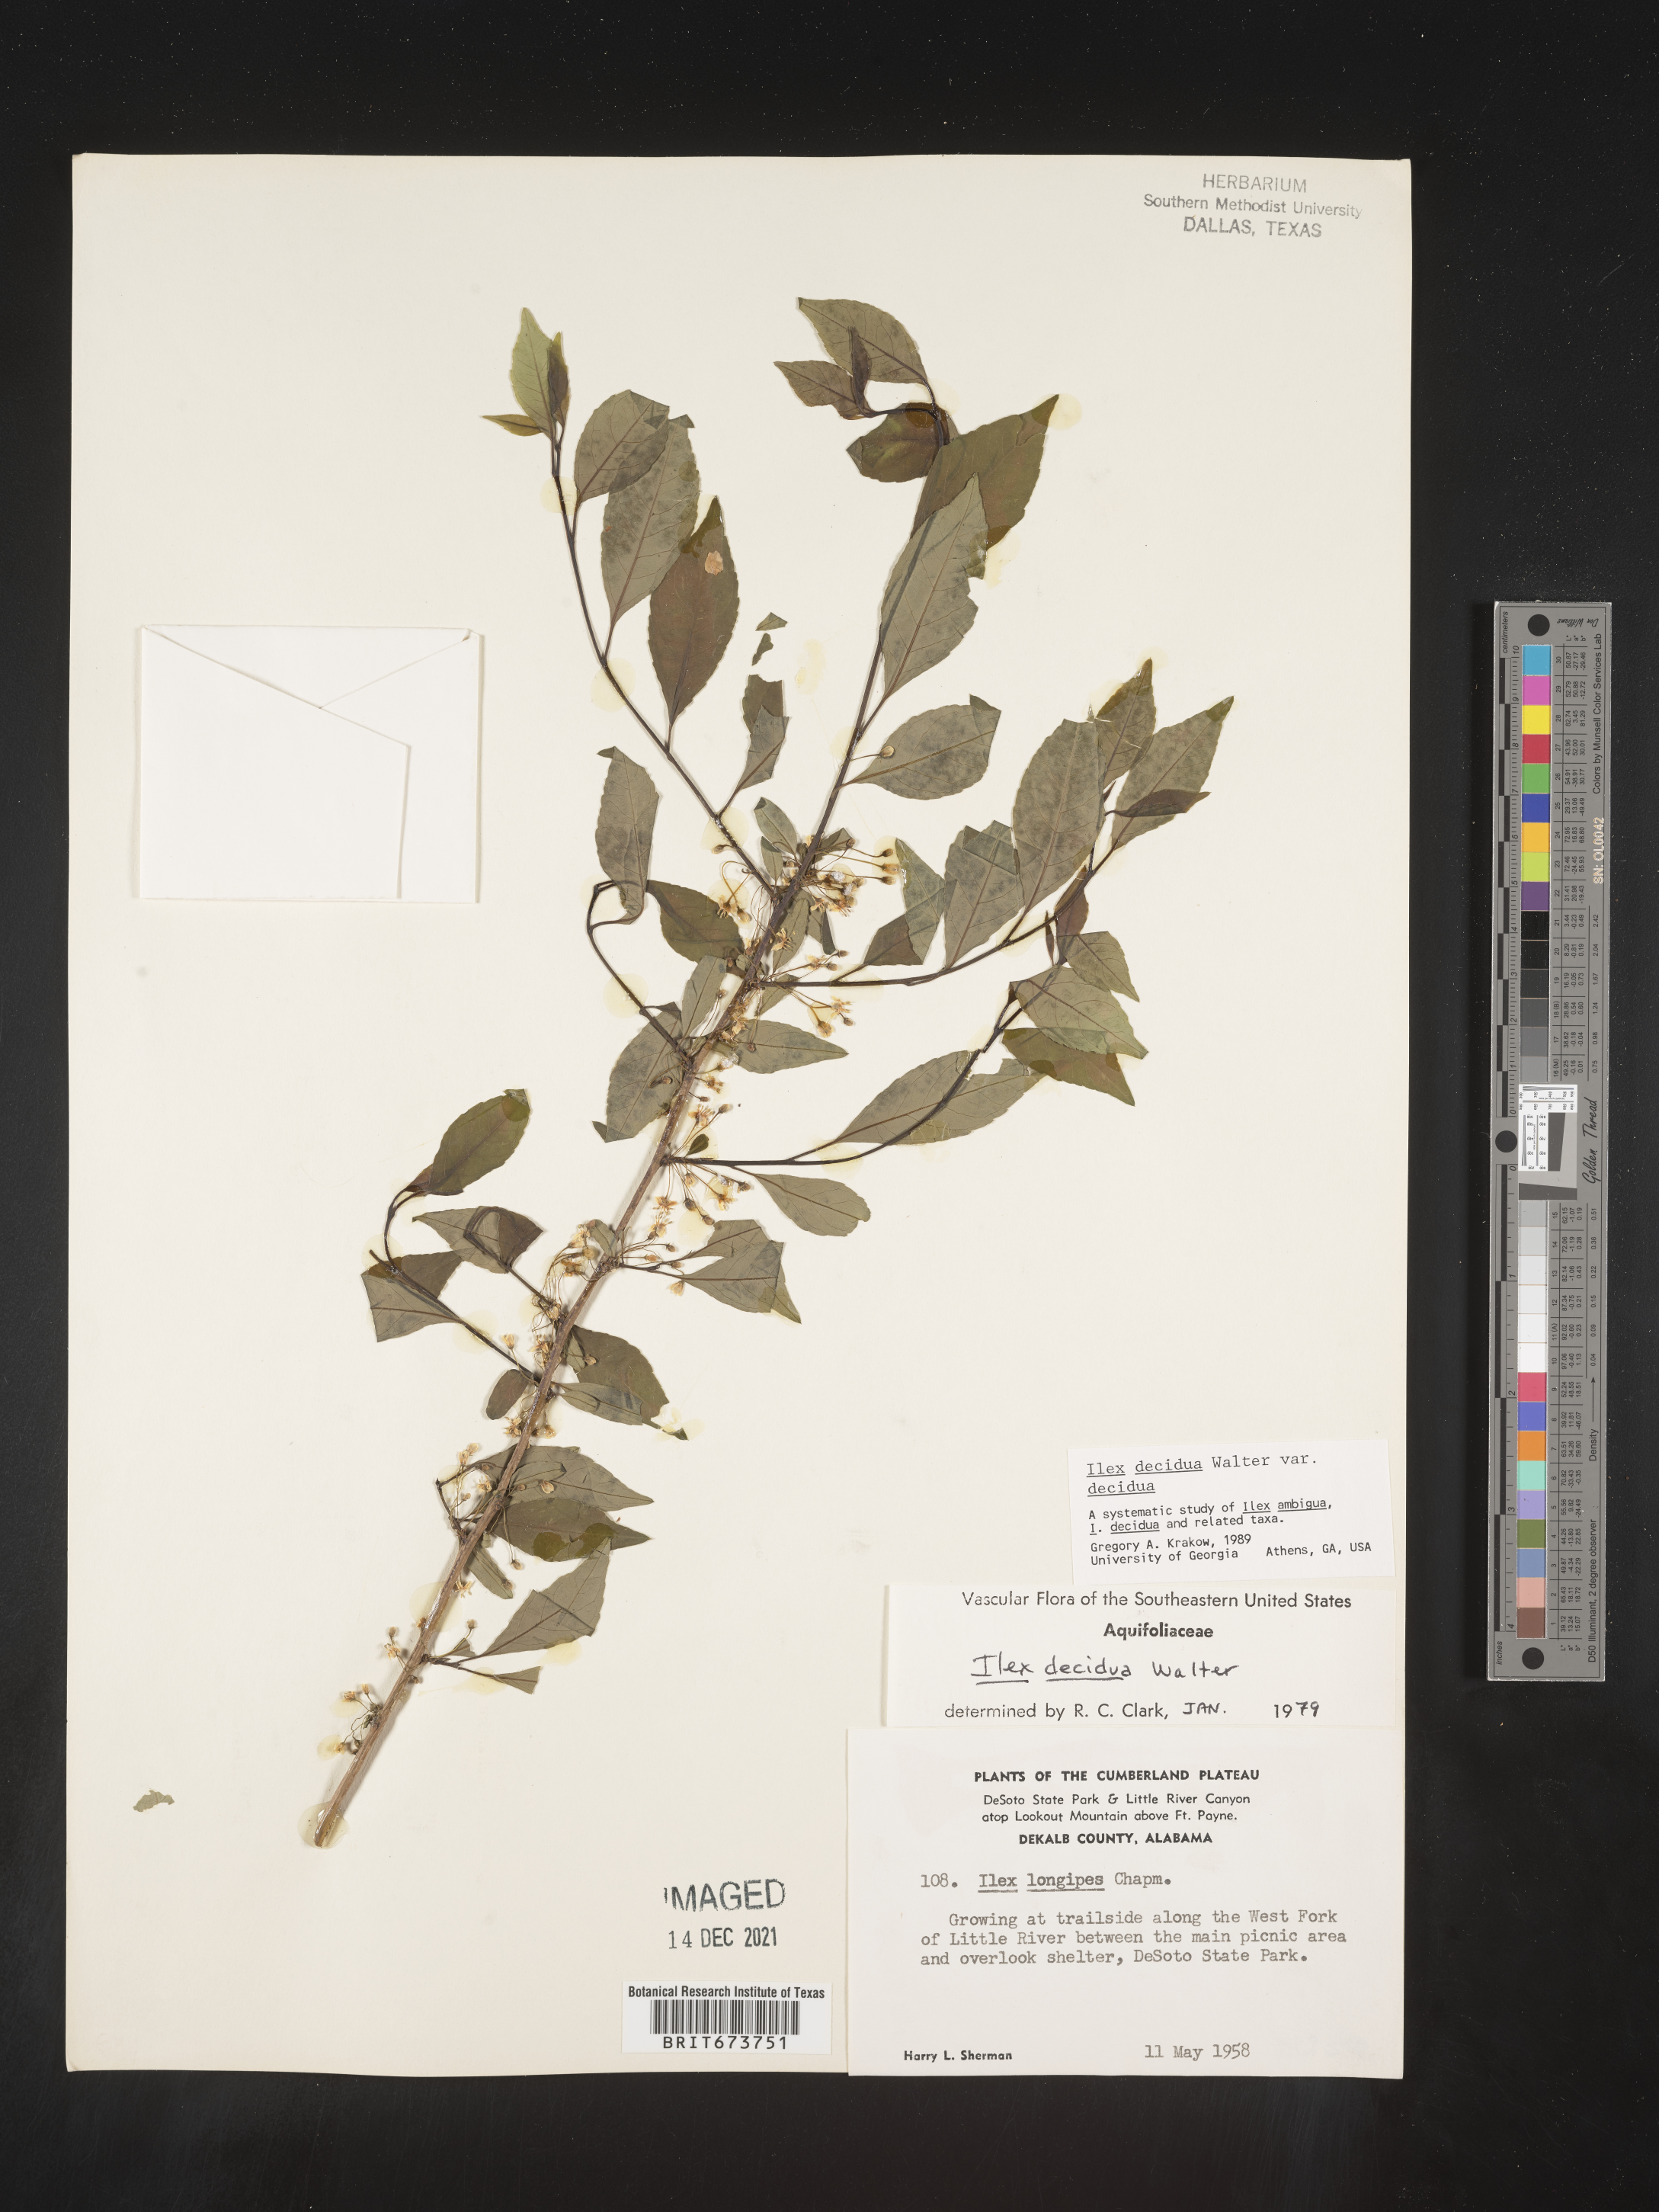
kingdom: Plantae
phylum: Tracheophyta
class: Magnoliopsida
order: Aquifoliales
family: Aquifoliaceae
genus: Ilex
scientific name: Ilex decidua
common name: Possum-haw
